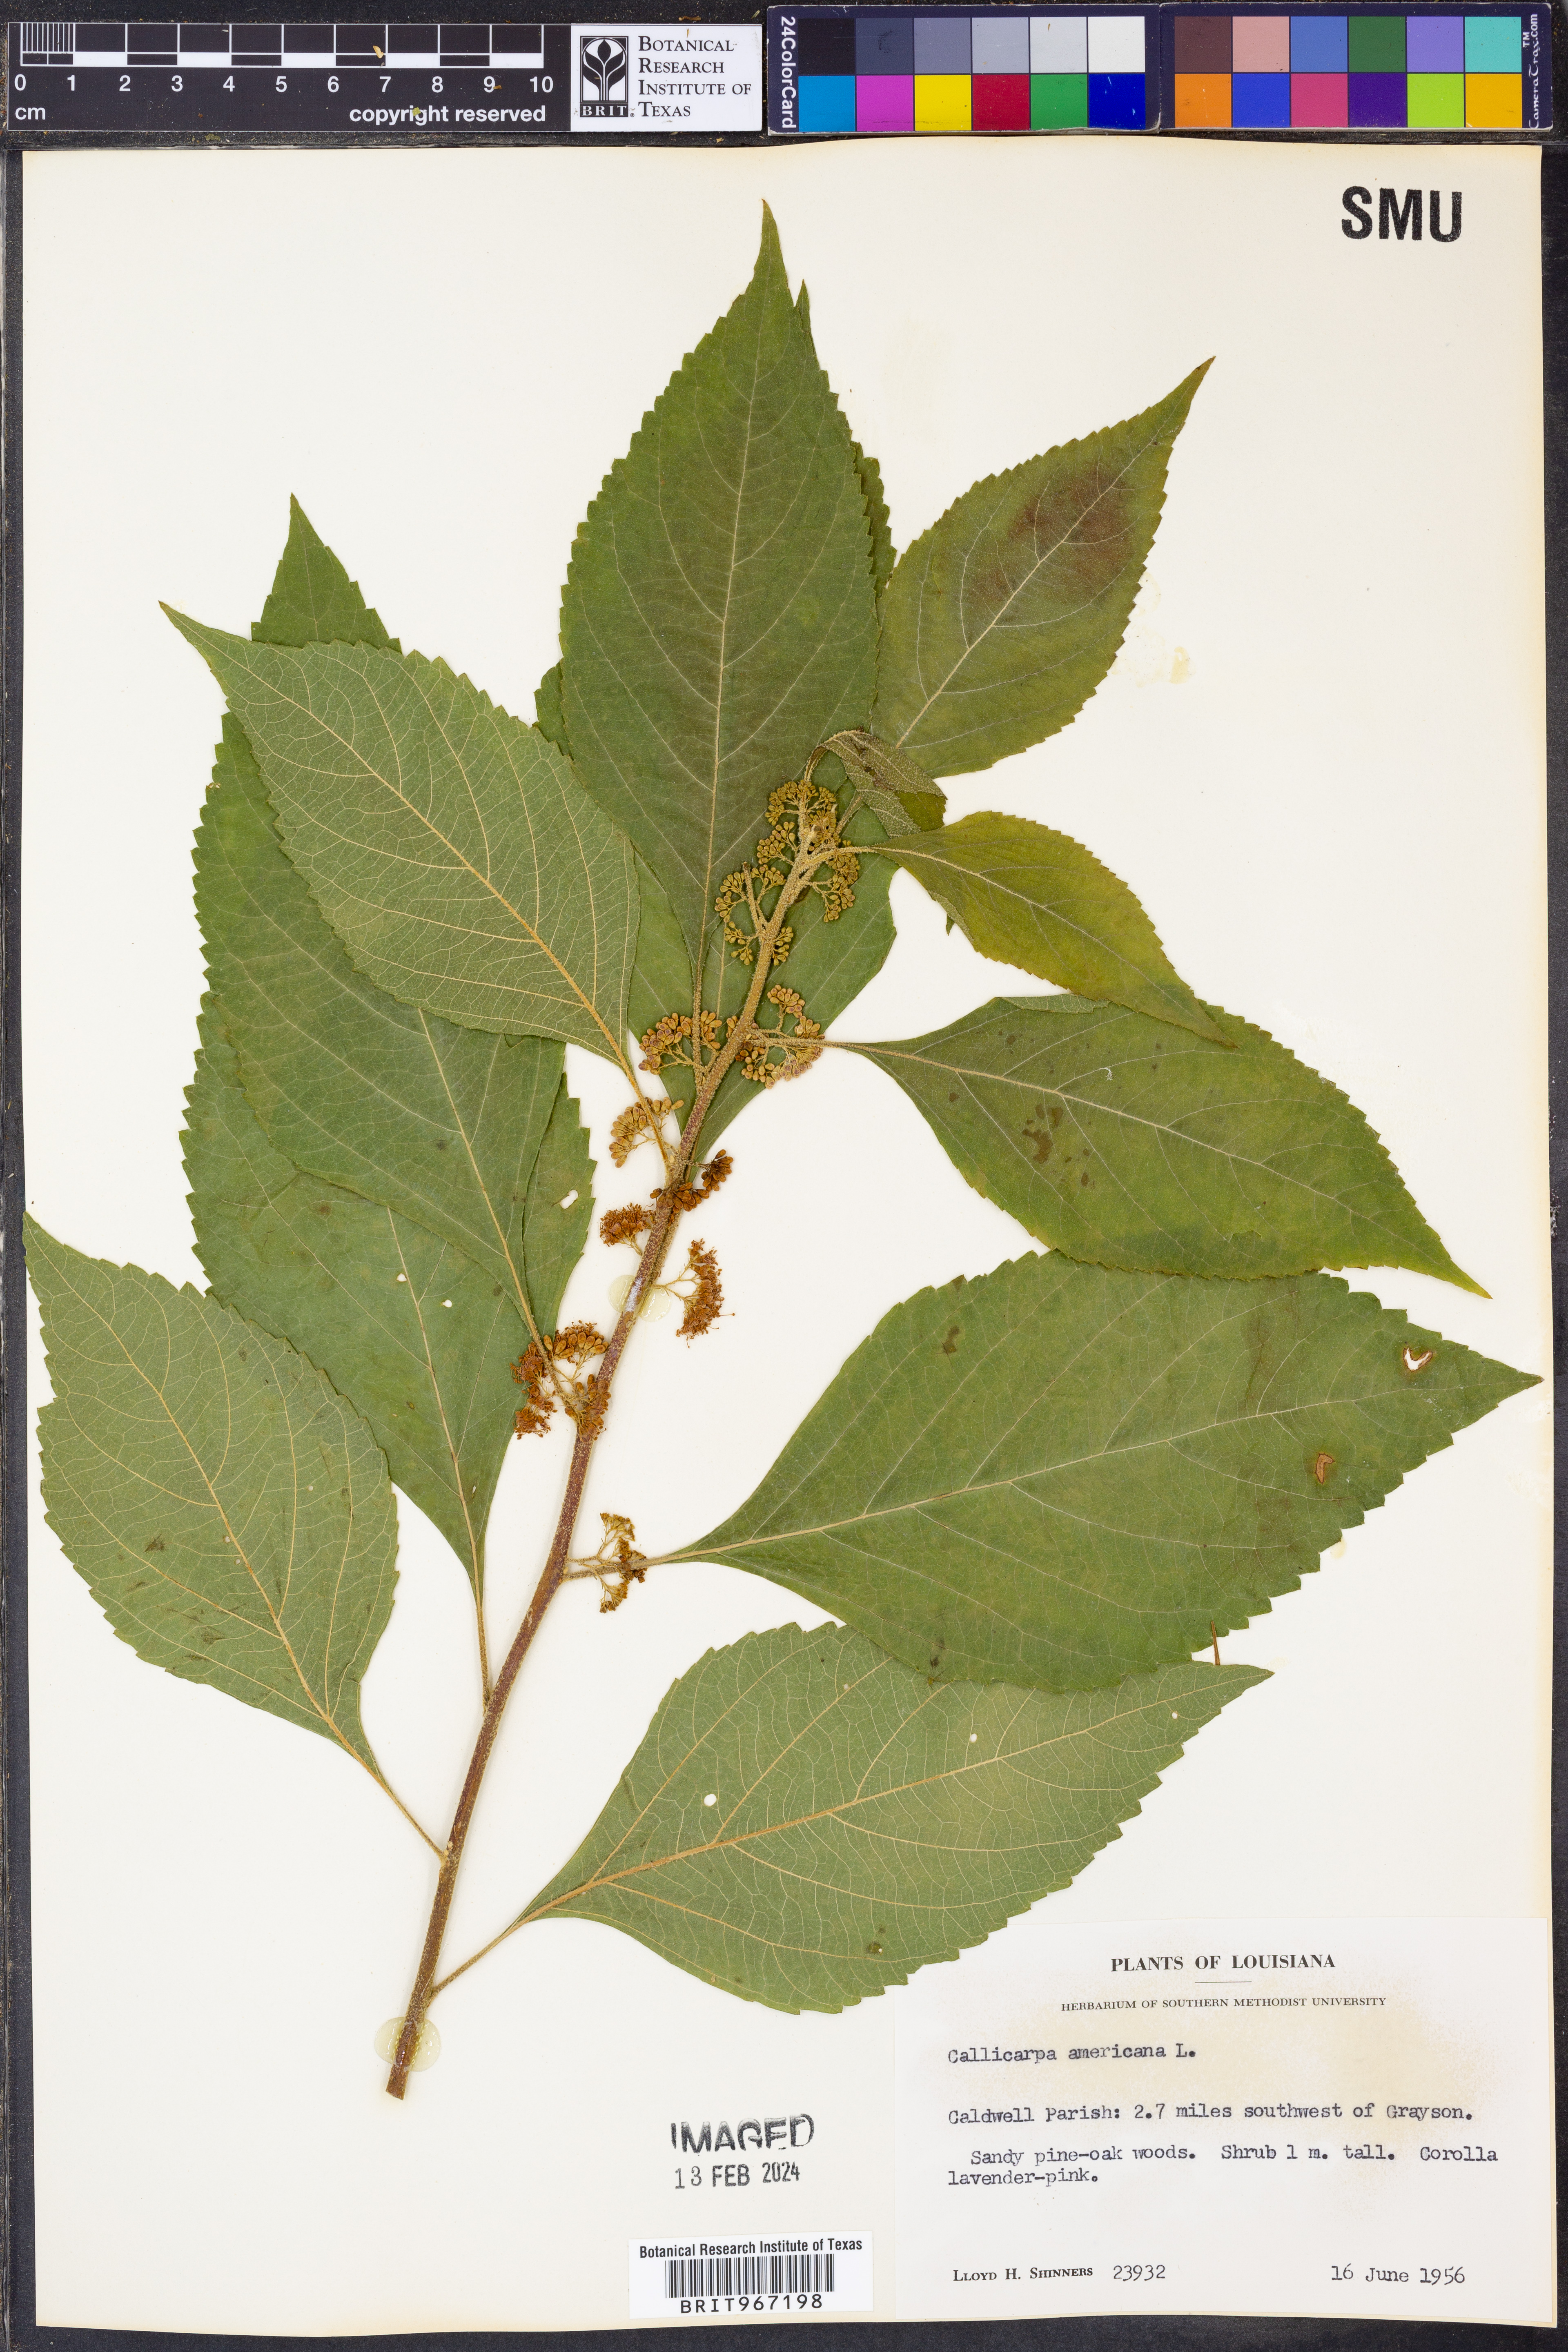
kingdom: Plantae
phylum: Tracheophyta
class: Magnoliopsida
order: Lamiales
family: Lamiaceae
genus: Callicarpa
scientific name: Callicarpa americana
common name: American beautyberry
